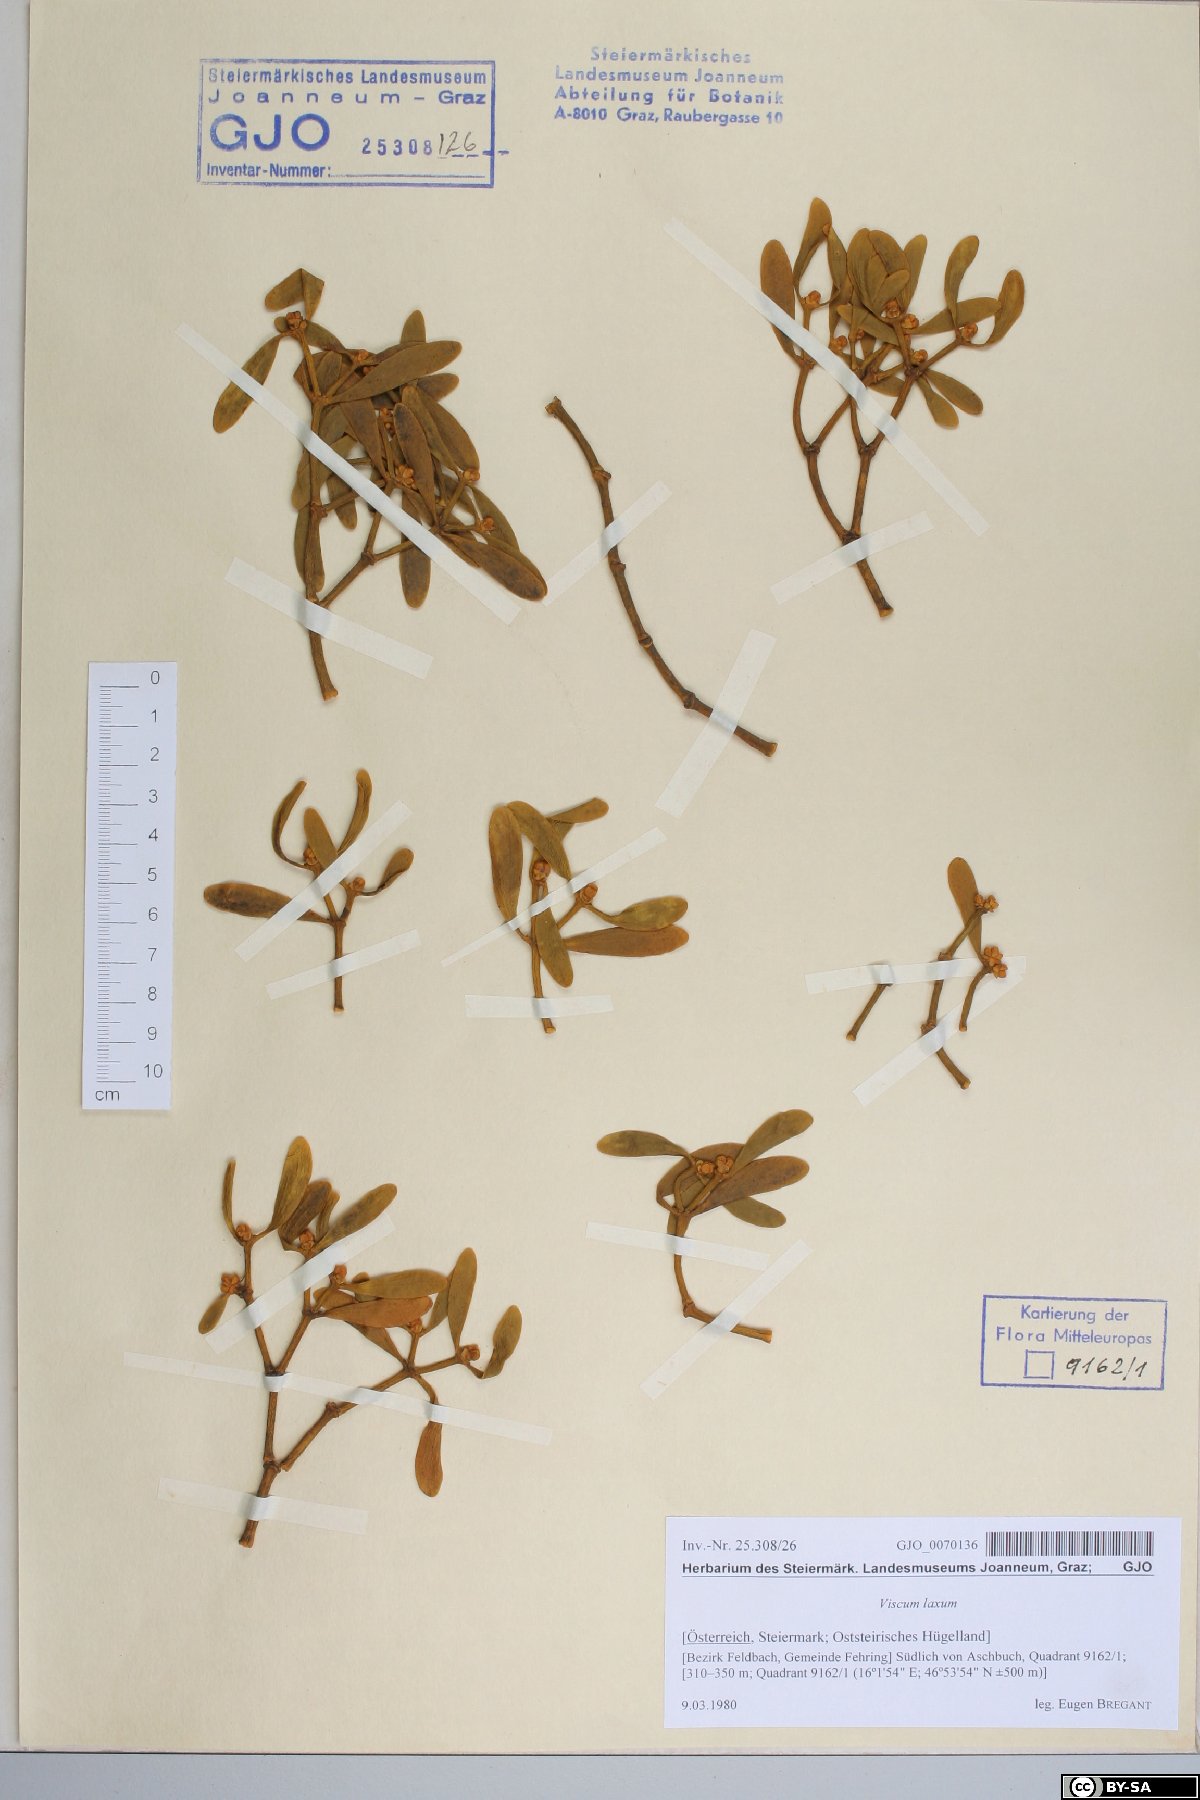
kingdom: Plantae
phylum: Tracheophyta
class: Magnoliopsida
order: Santalales
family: Viscaceae
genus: Viscum
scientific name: Viscum laxum
